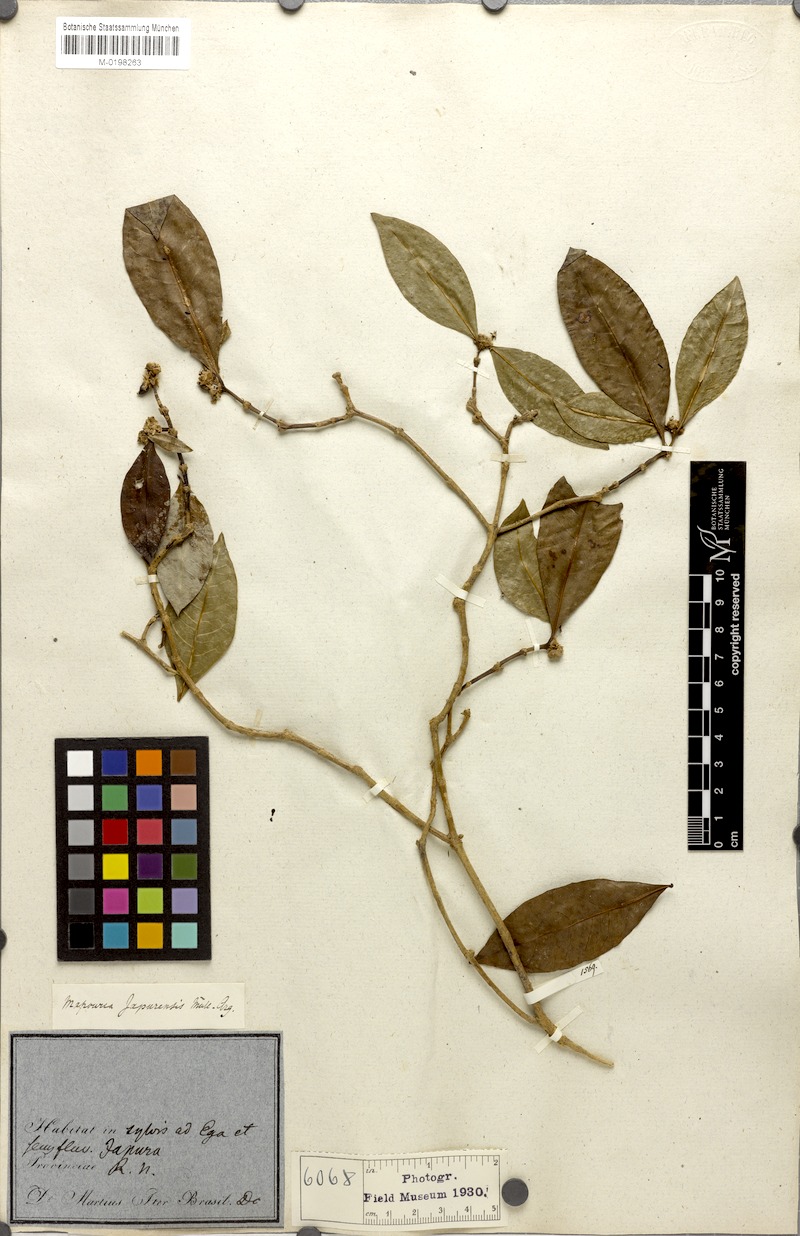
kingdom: Plantae
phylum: Tracheophyta
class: Magnoliopsida
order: Gentianales
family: Rubiaceae
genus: Psychotria
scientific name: Psychotria Mapouria japurensis
